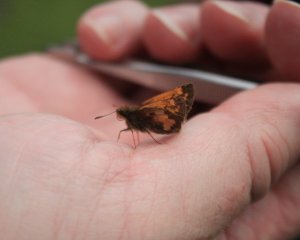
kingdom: Animalia
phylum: Arthropoda
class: Insecta
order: Lepidoptera
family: Hesperiidae
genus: Lon
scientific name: Lon hobomok
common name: Hobomok Skipper
